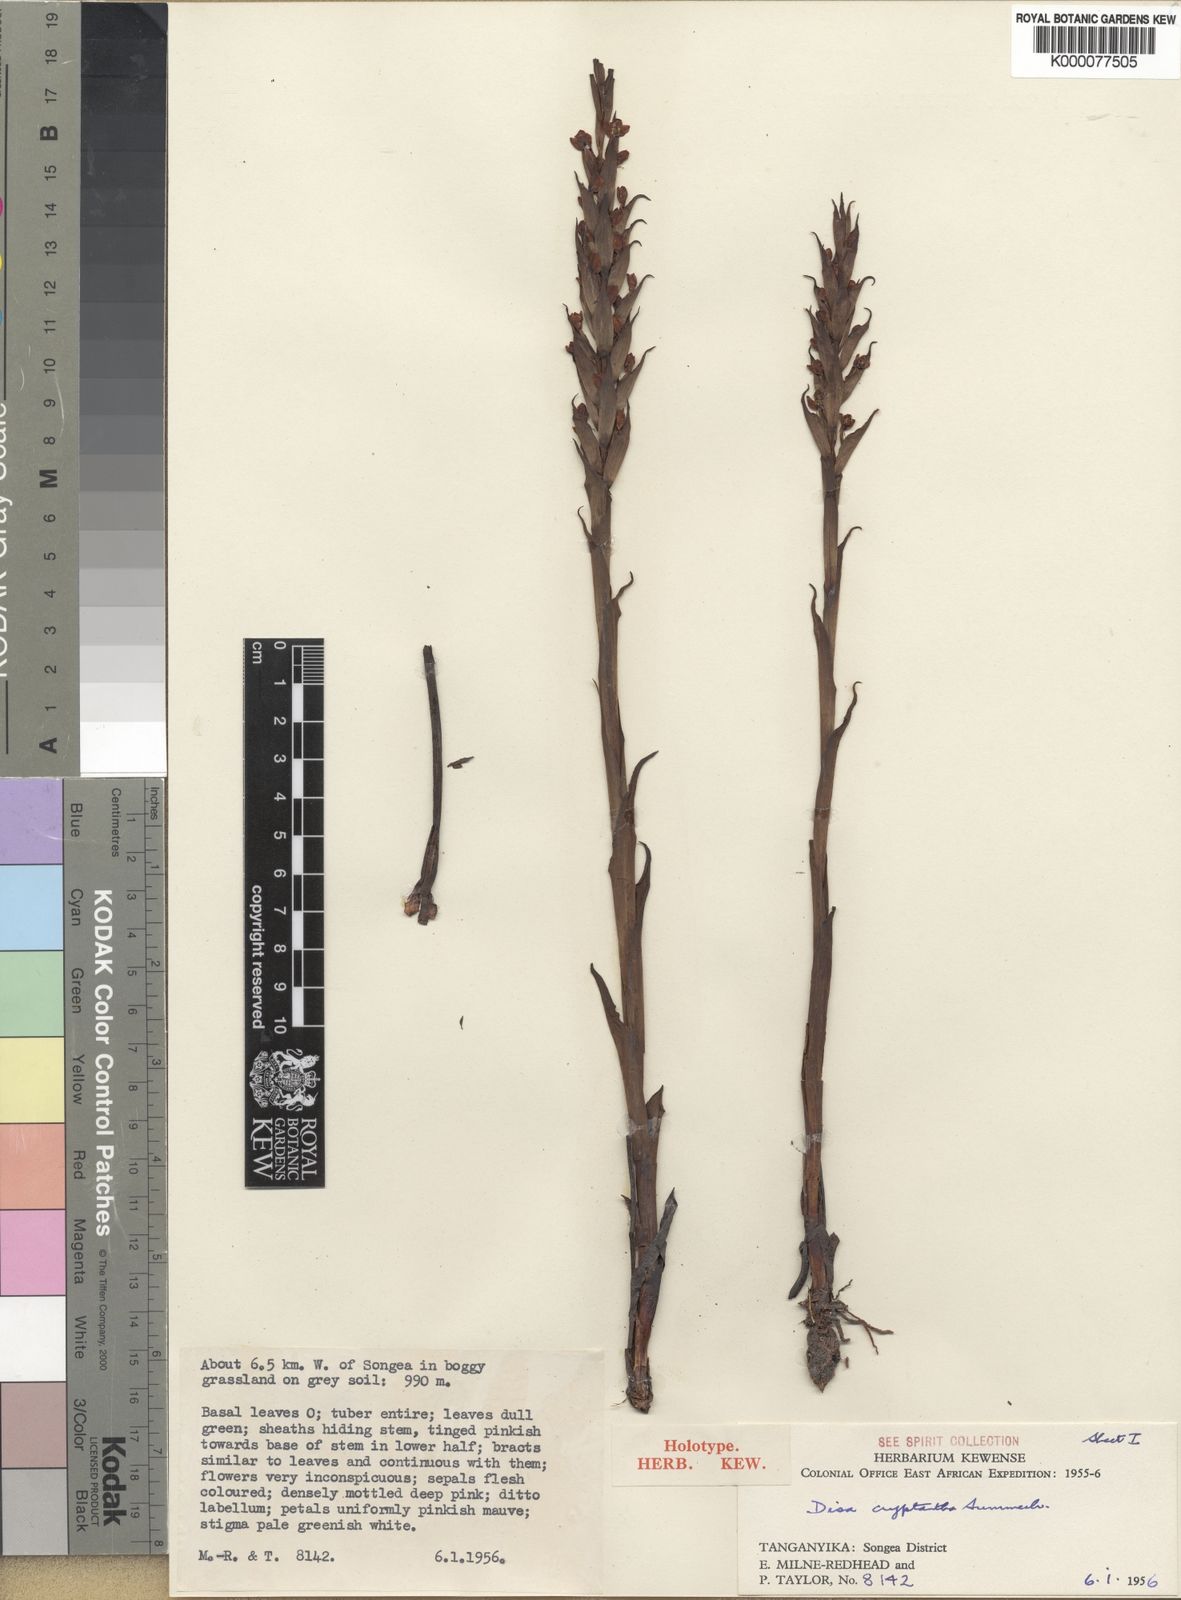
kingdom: Plantae
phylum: Tracheophyta
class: Liliopsida
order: Asparagales
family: Orchidaceae
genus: Disa
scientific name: Disa cryptantha
